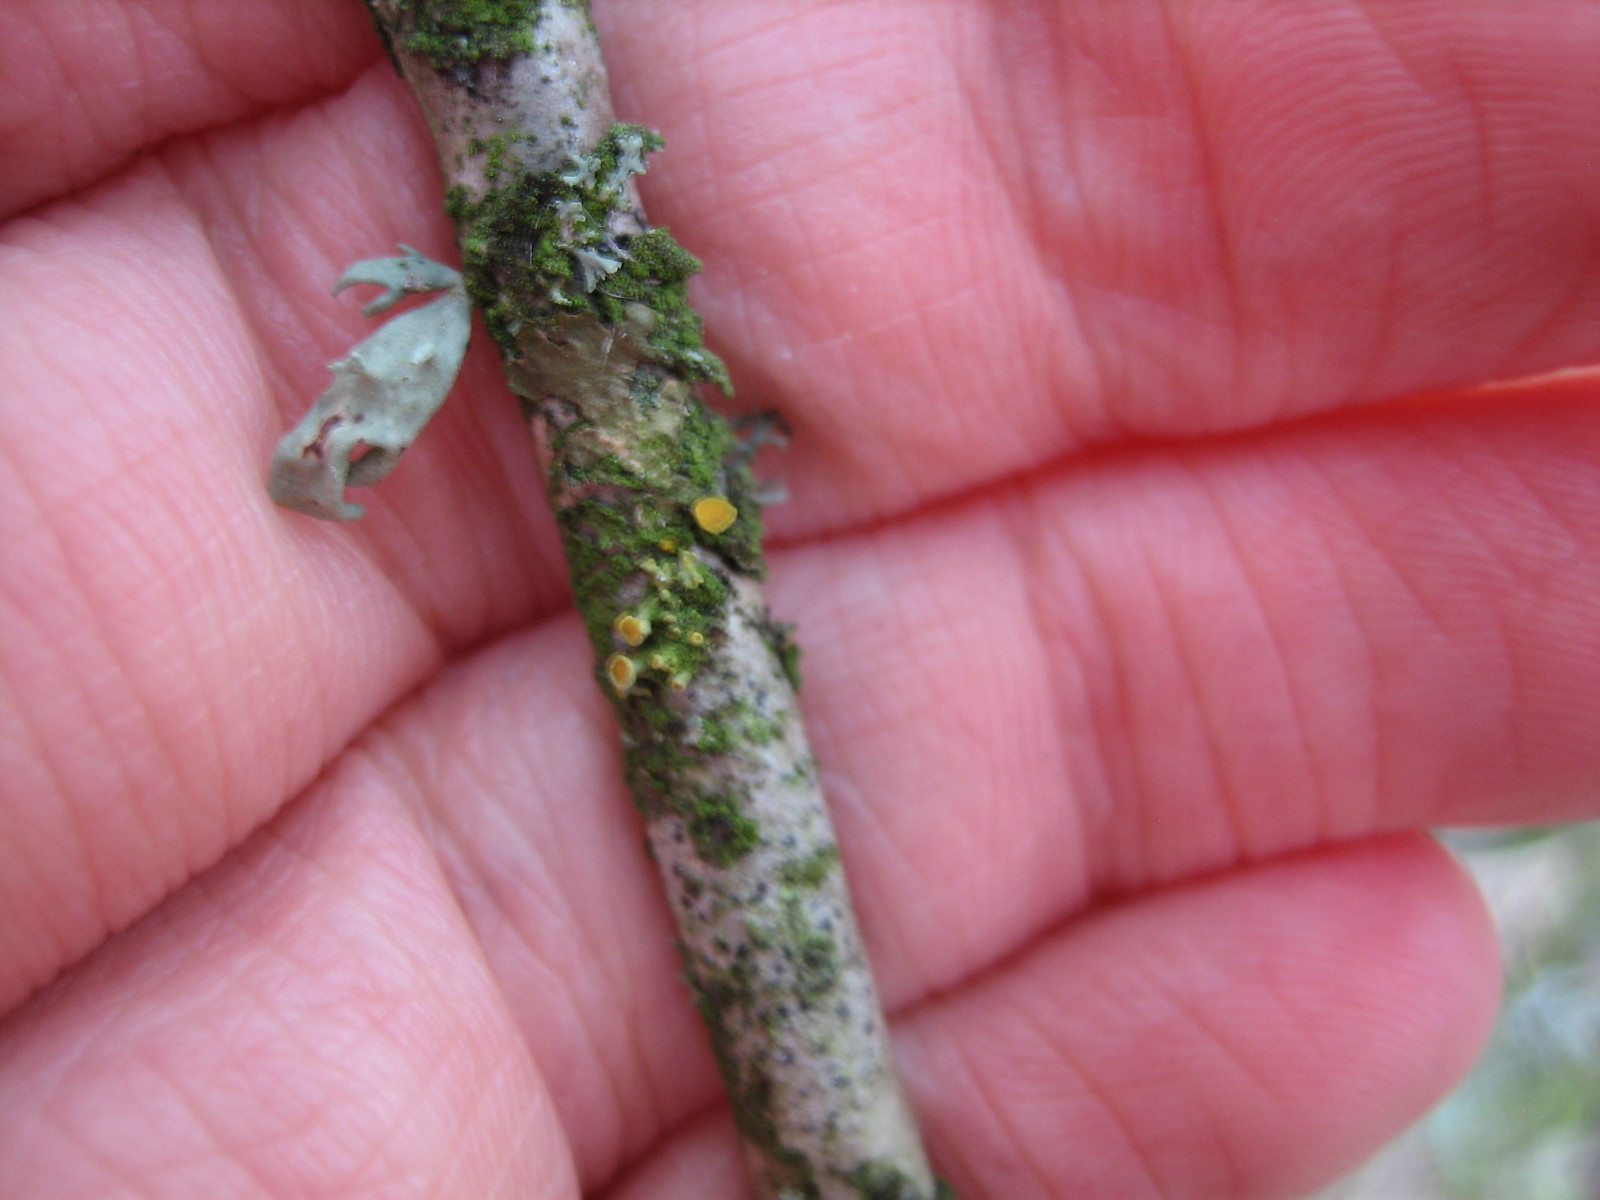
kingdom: Fungi
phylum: Ascomycota
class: Lecanoromycetes
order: Teloschistales
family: Teloschistaceae
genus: Polycauliona
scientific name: Polycauliona polycarpa
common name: mangefrugtet orangelav
